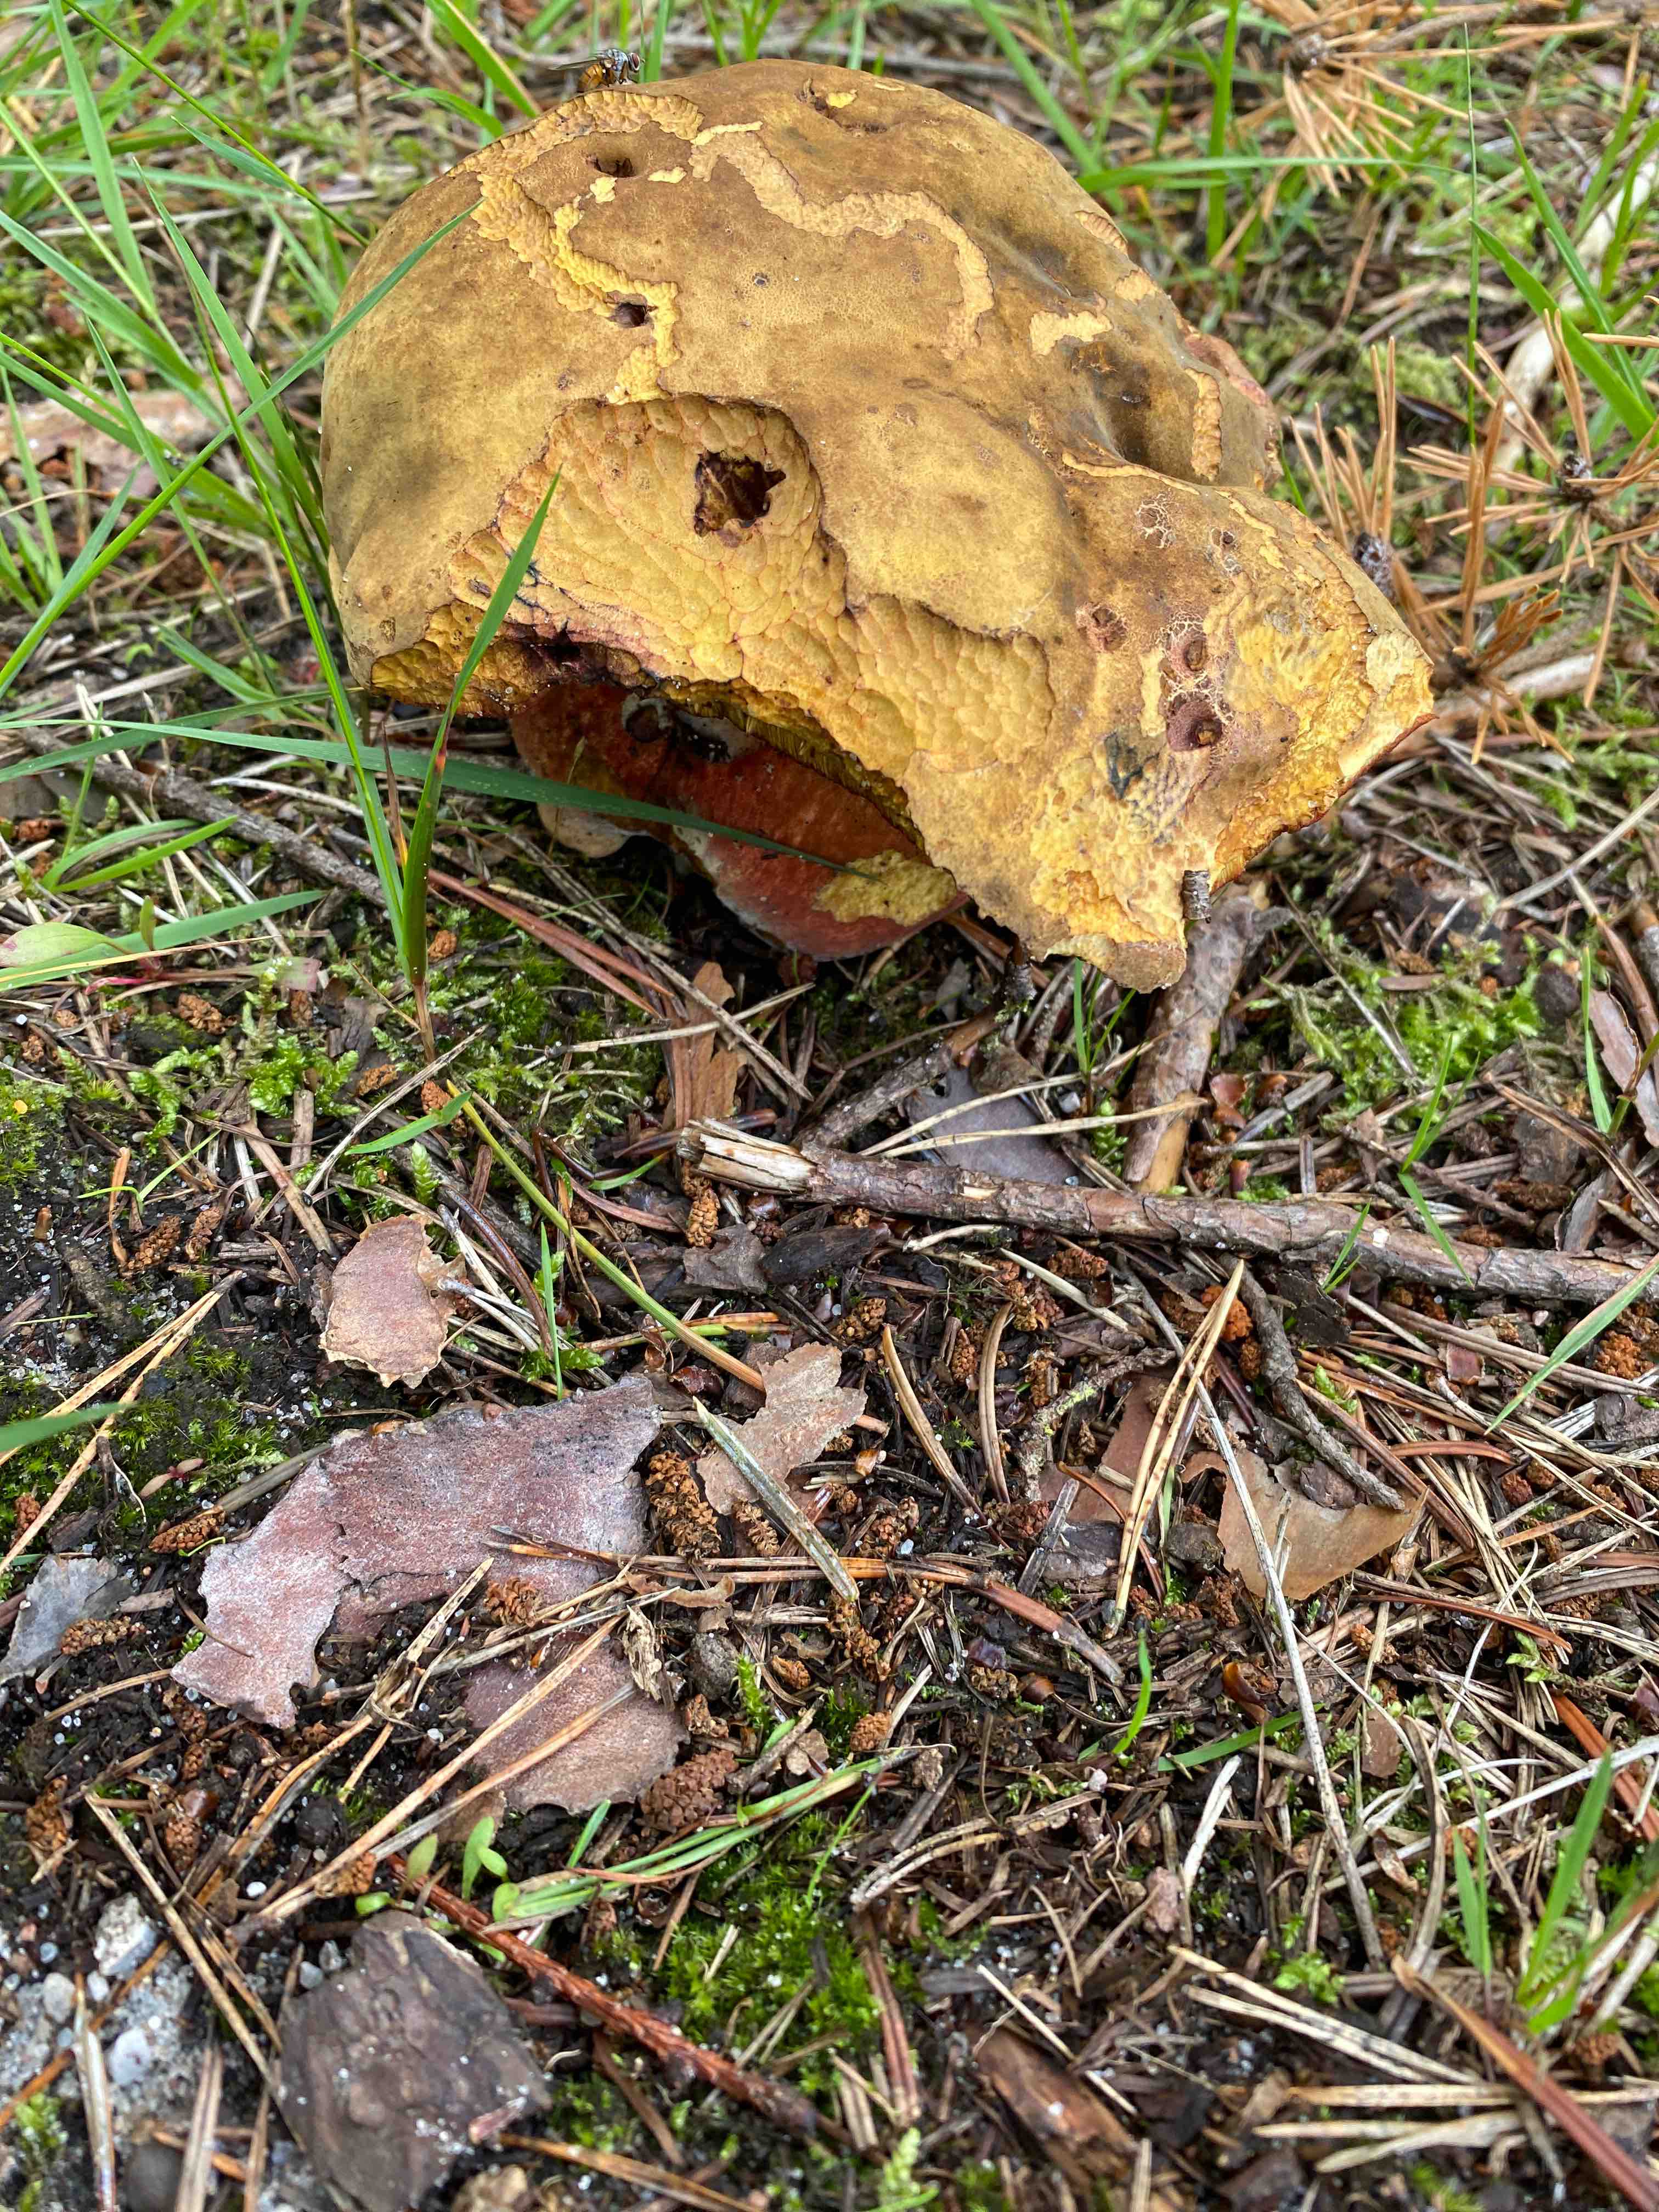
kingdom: Fungi
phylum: Basidiomycota
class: Agaricomycetes
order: Boletales
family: Boletaceae
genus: Neoboletus
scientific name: Neoboletus erythropus
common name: punktstokket indigorørhat
